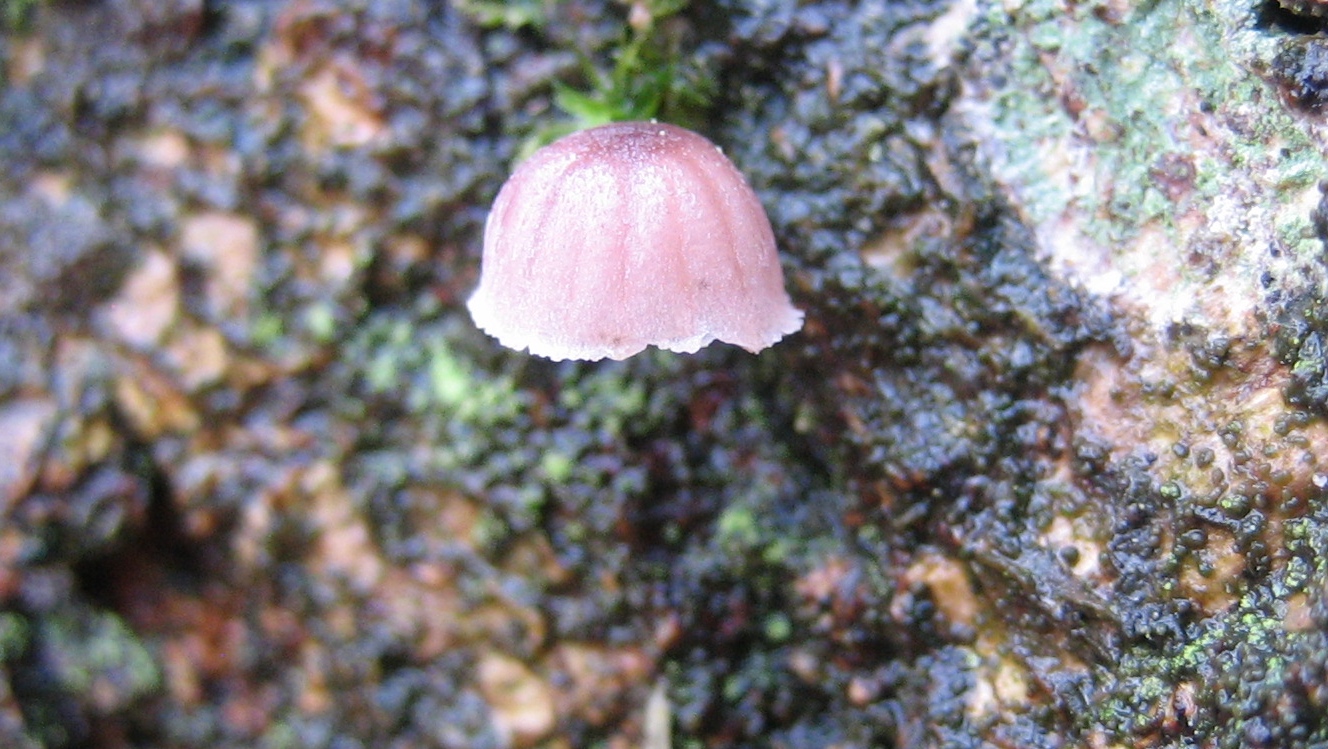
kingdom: Fungi
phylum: Basidiomycota
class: Agaricomycetes
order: Agaricales
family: Mycenaceae
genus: Mycena
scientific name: Mycena meliigena
